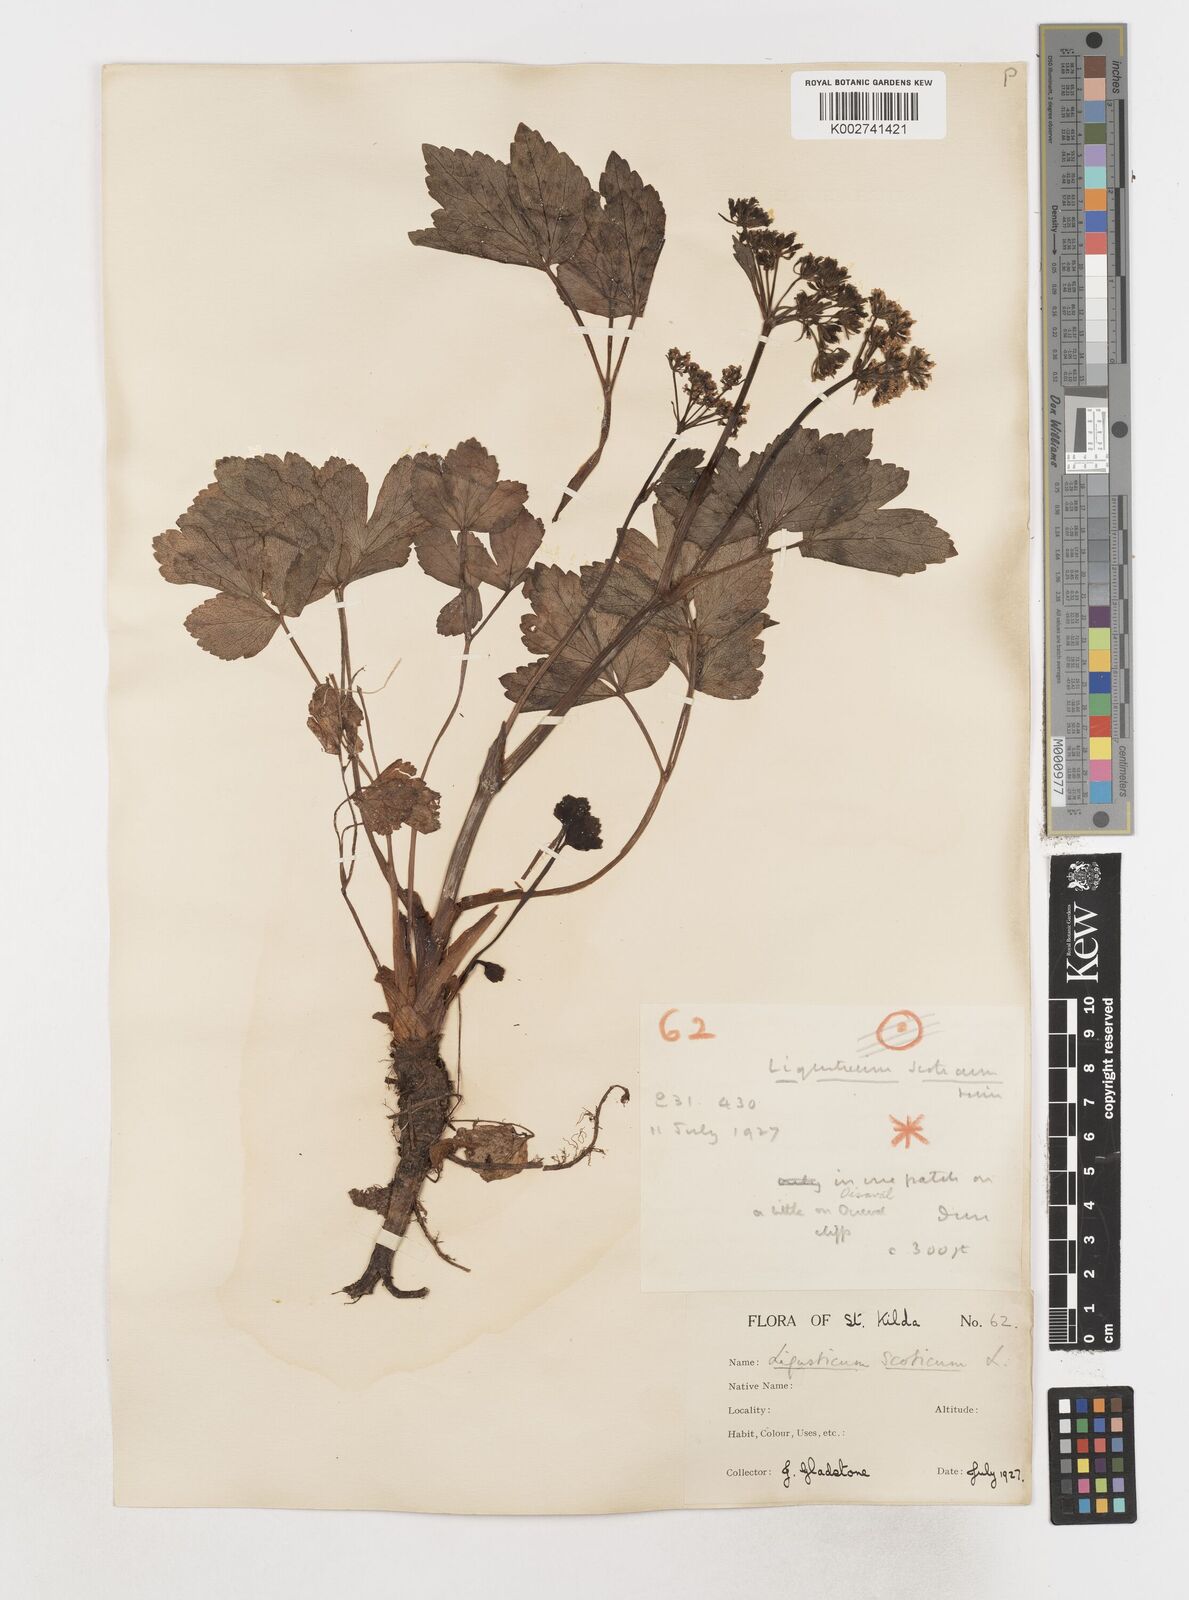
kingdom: Plantae
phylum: Tracheophyta
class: Magnoliopsida
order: Apiales
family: Apiaceae
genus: Ligusticum
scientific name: Ligusticum scothicum
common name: Beach lovage
